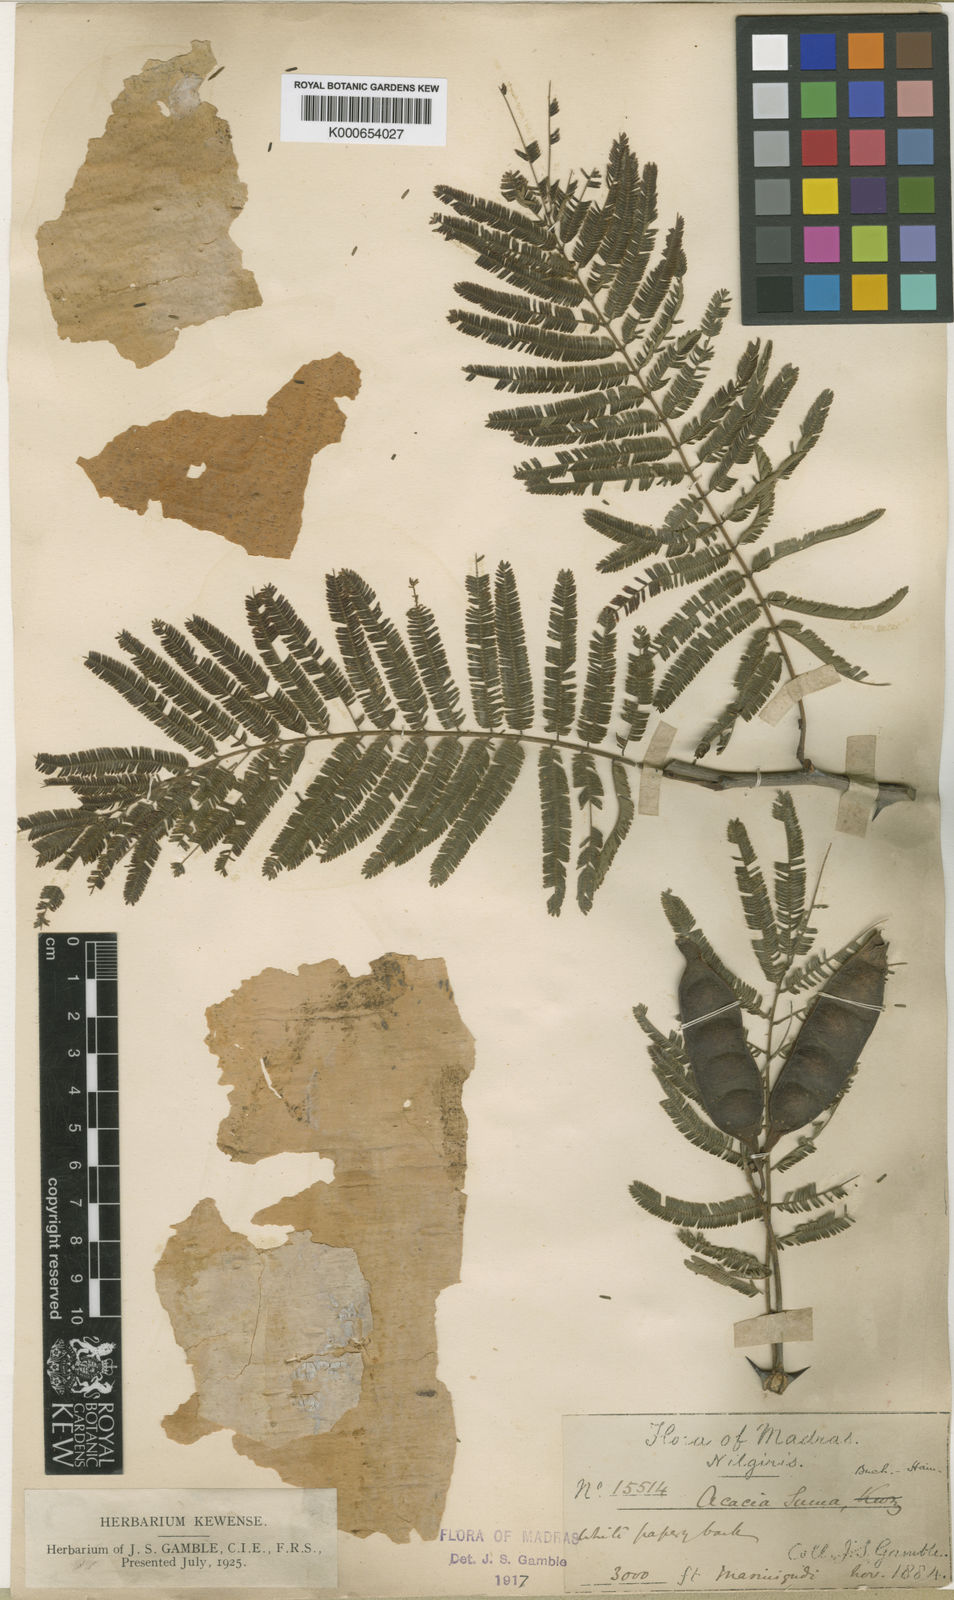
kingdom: Plantae
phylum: Tracheophyta
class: Magnoliopsida
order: Fabales
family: Fabaceae
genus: Senegalia
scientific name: Senegalia polyacantha
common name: Whitethorn
